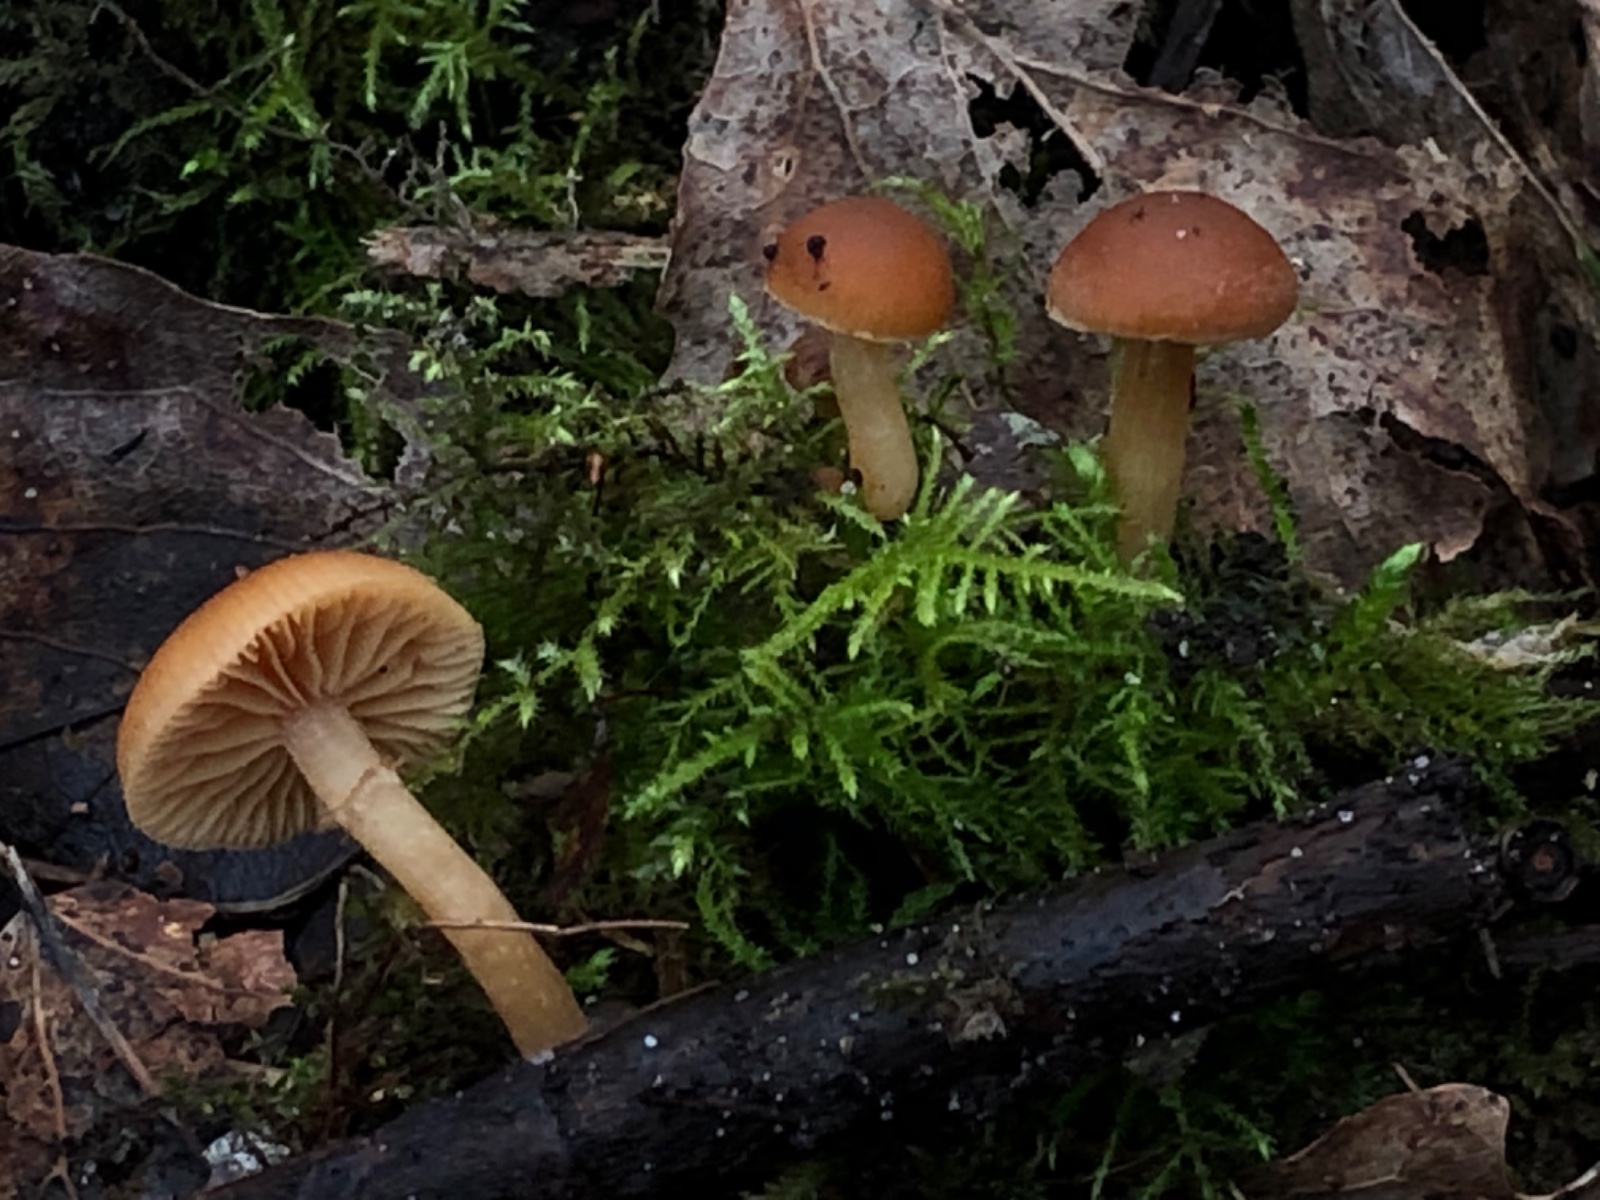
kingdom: Fungi
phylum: Basidiomycota
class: Agaricomycetes
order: Agaricales
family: Hymenogastraceae
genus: Galerina
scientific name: Galerina
